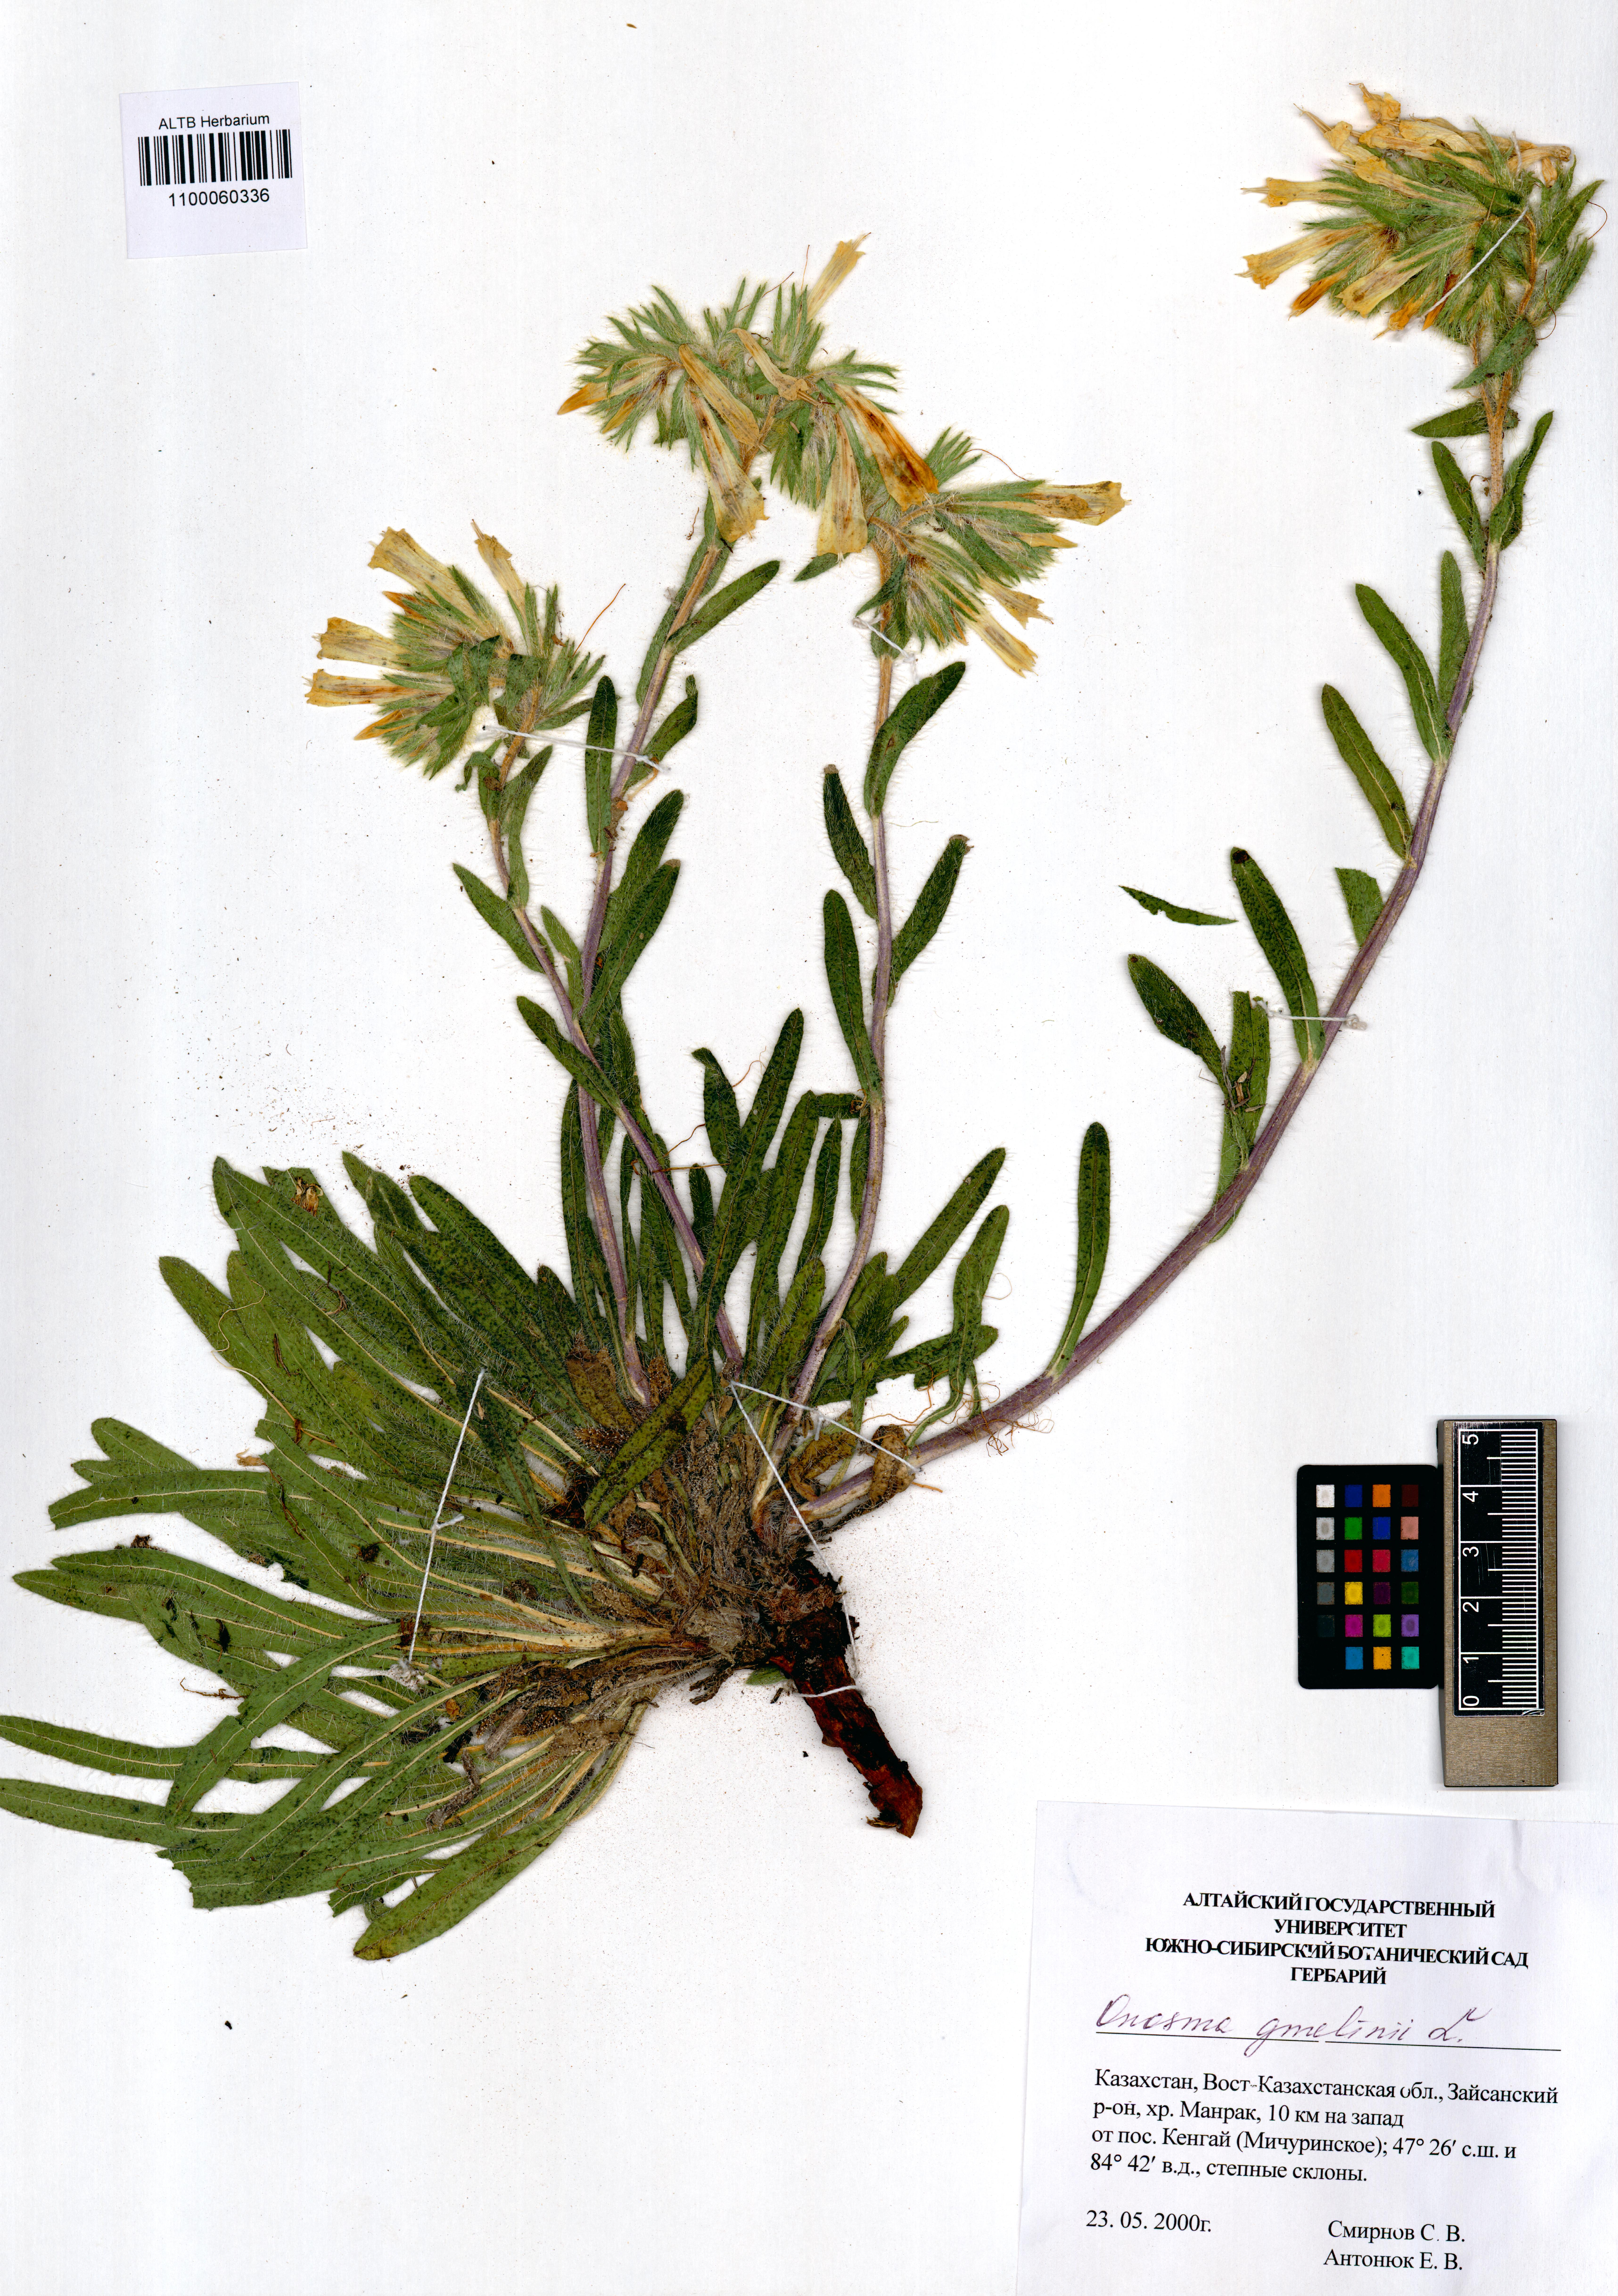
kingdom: Plantae
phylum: Tracheophyta
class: Magnoliopsida
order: Boraginales
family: Boraginaceae
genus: Onosma
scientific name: Onosma gmelinii
